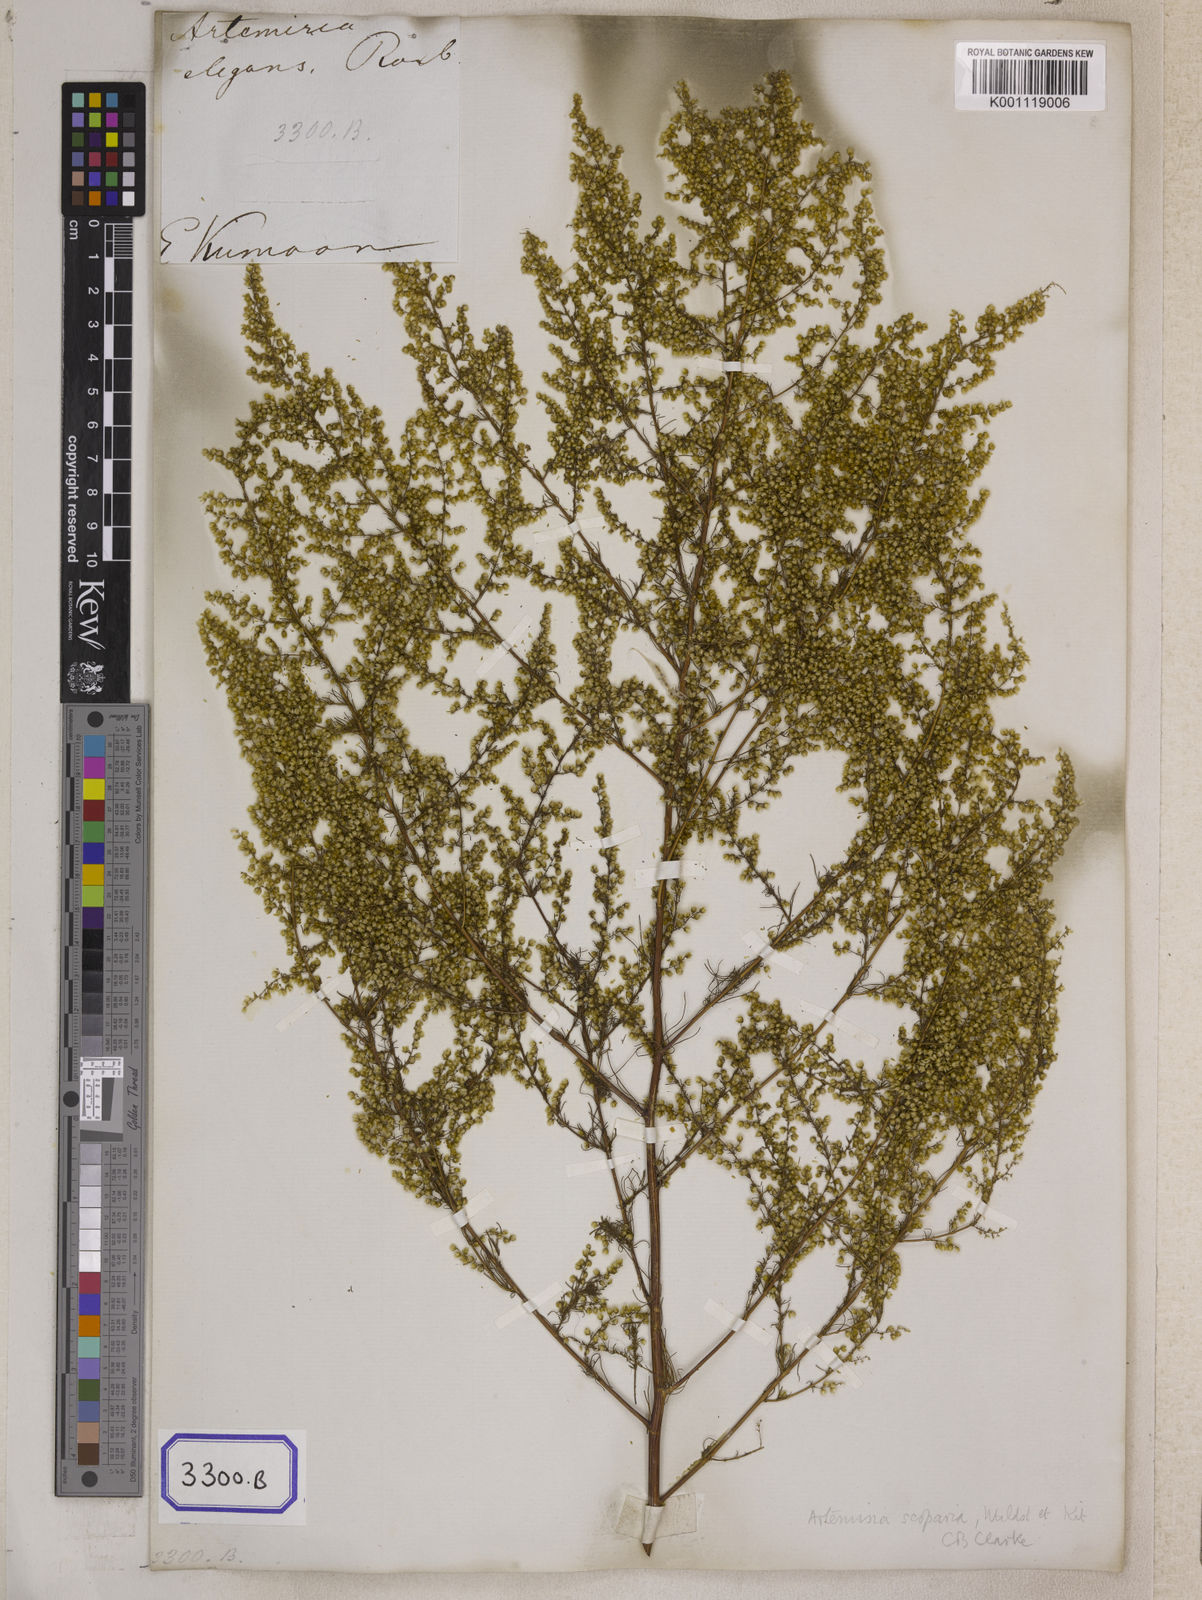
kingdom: Plantae
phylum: Tracheophyta
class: Magnoliopsida
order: Asterales
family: Asteraceae
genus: Artemisia
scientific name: Artemisia scoparia
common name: Redstem wormwood
